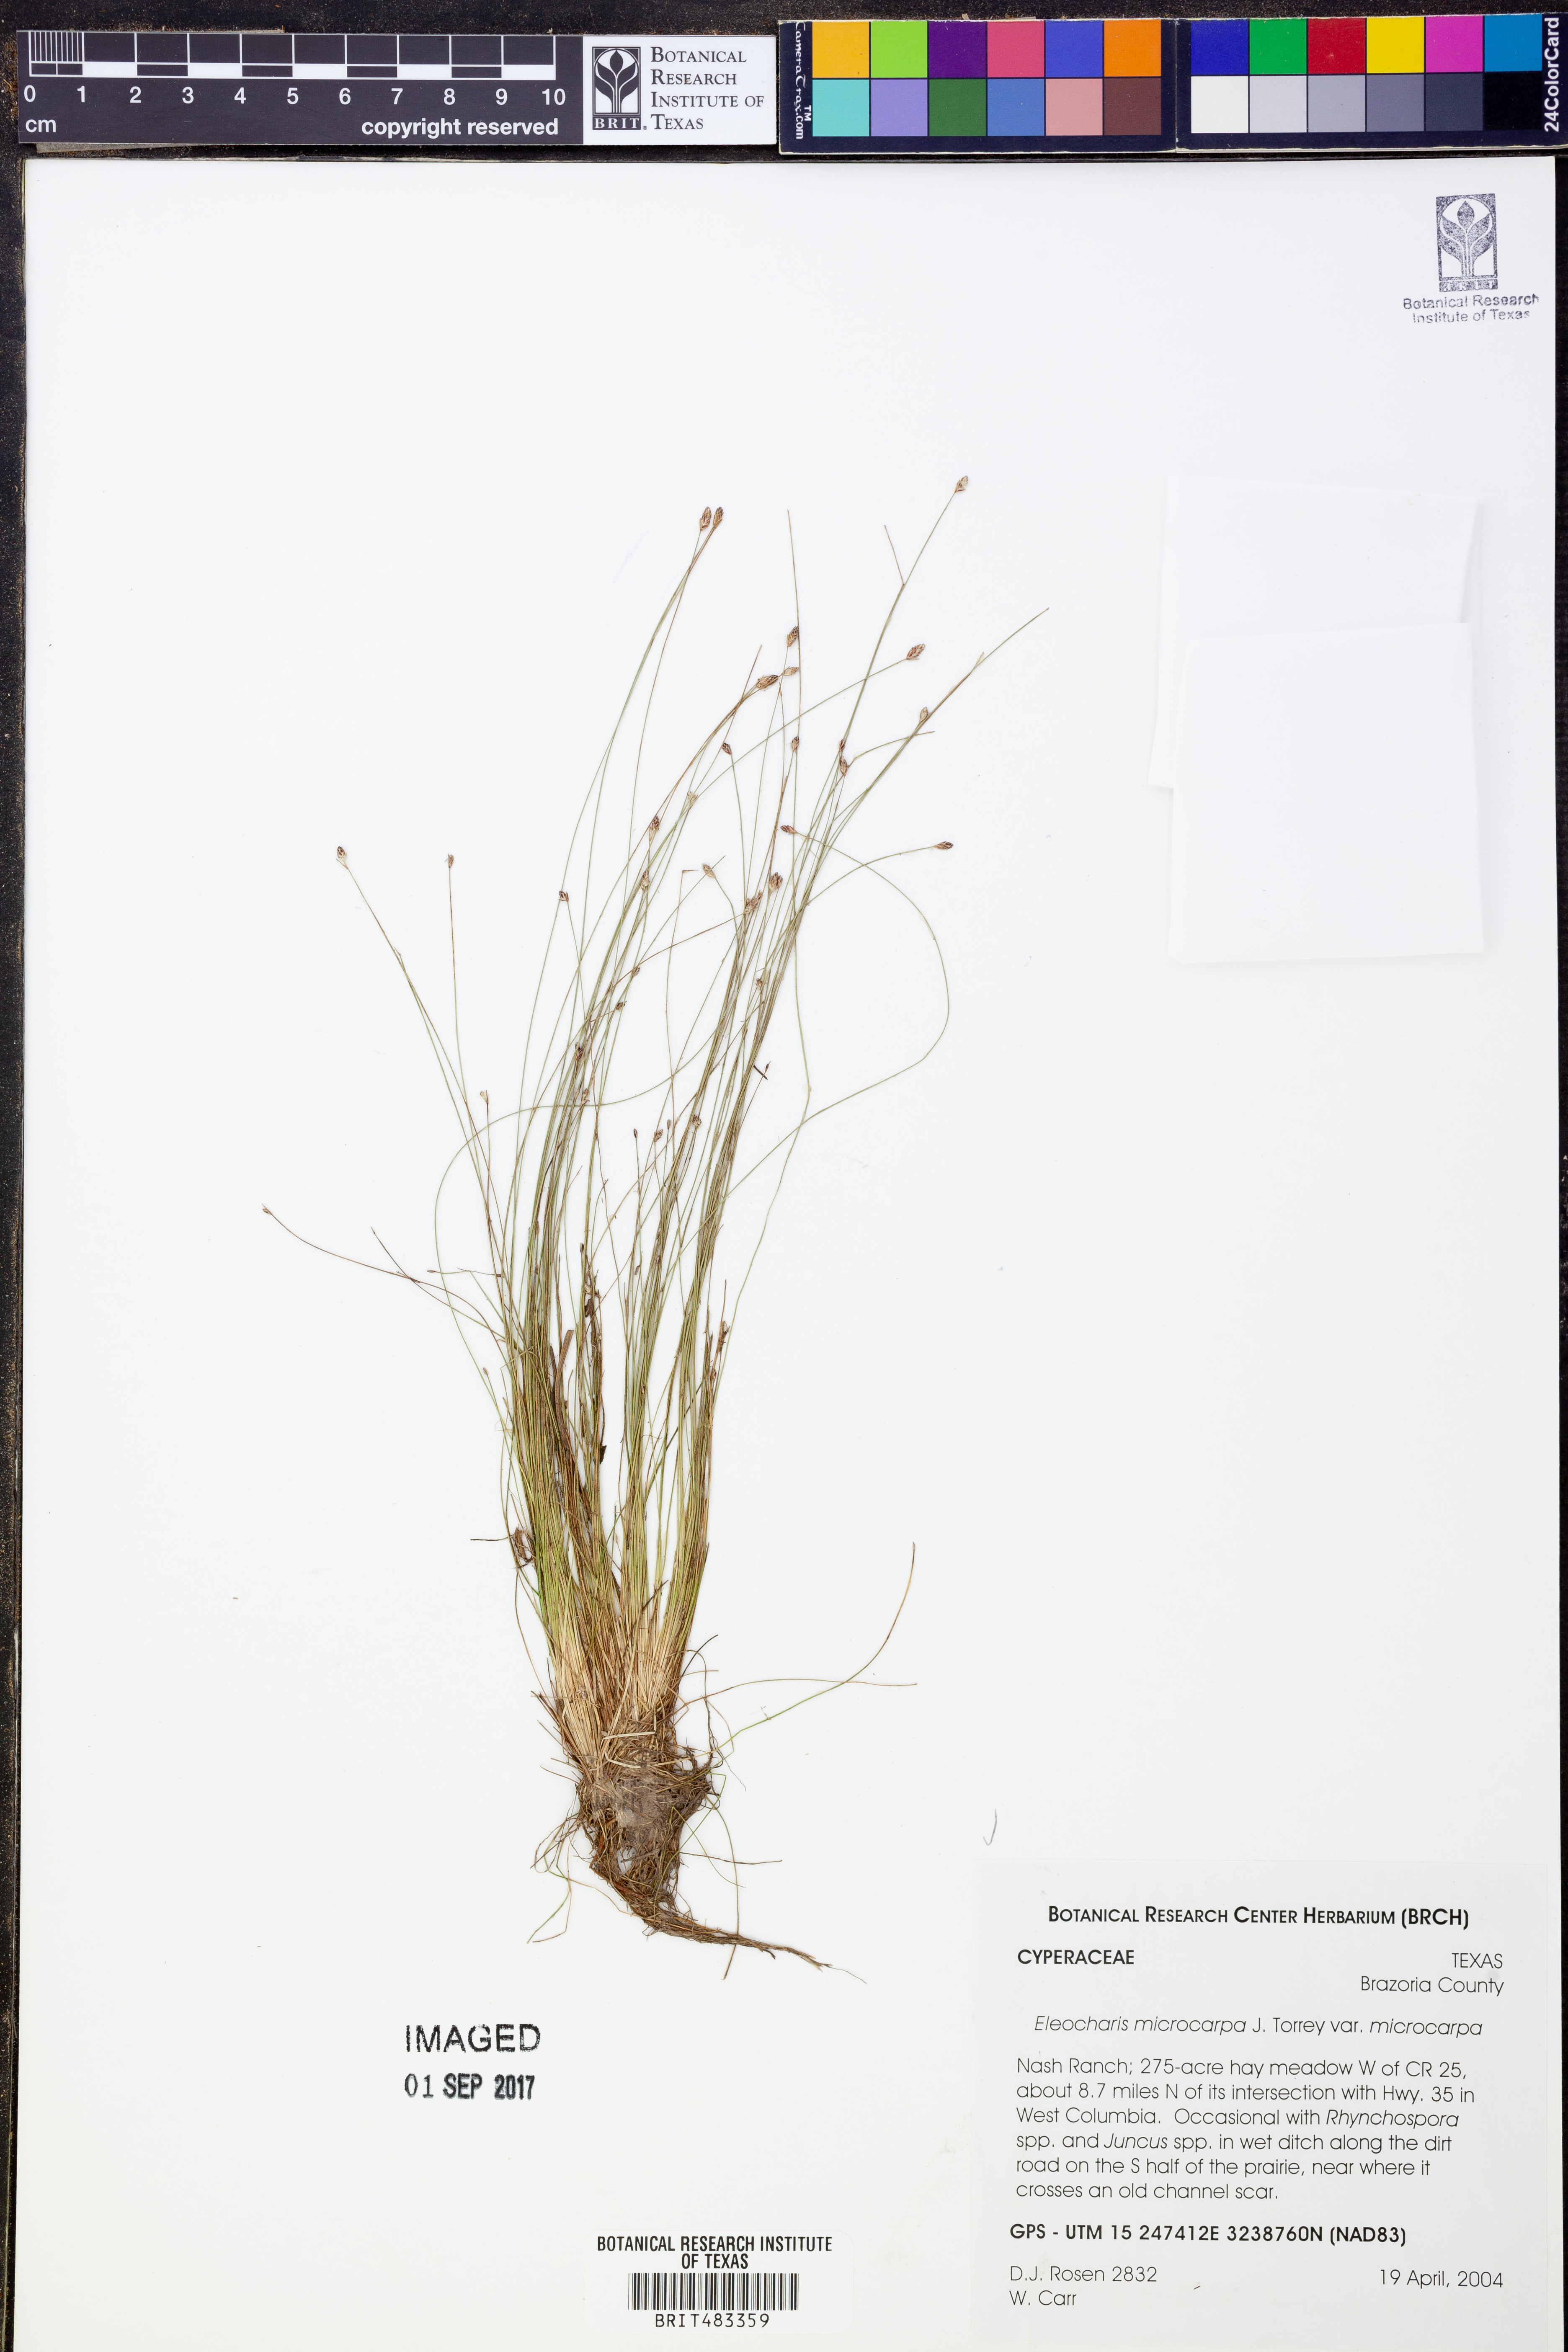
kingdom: Plantae
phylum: Tracheophyta
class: Liliopsida
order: Poales
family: Cyperaceae
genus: Eleocharis
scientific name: Eleocharis microcarpa
